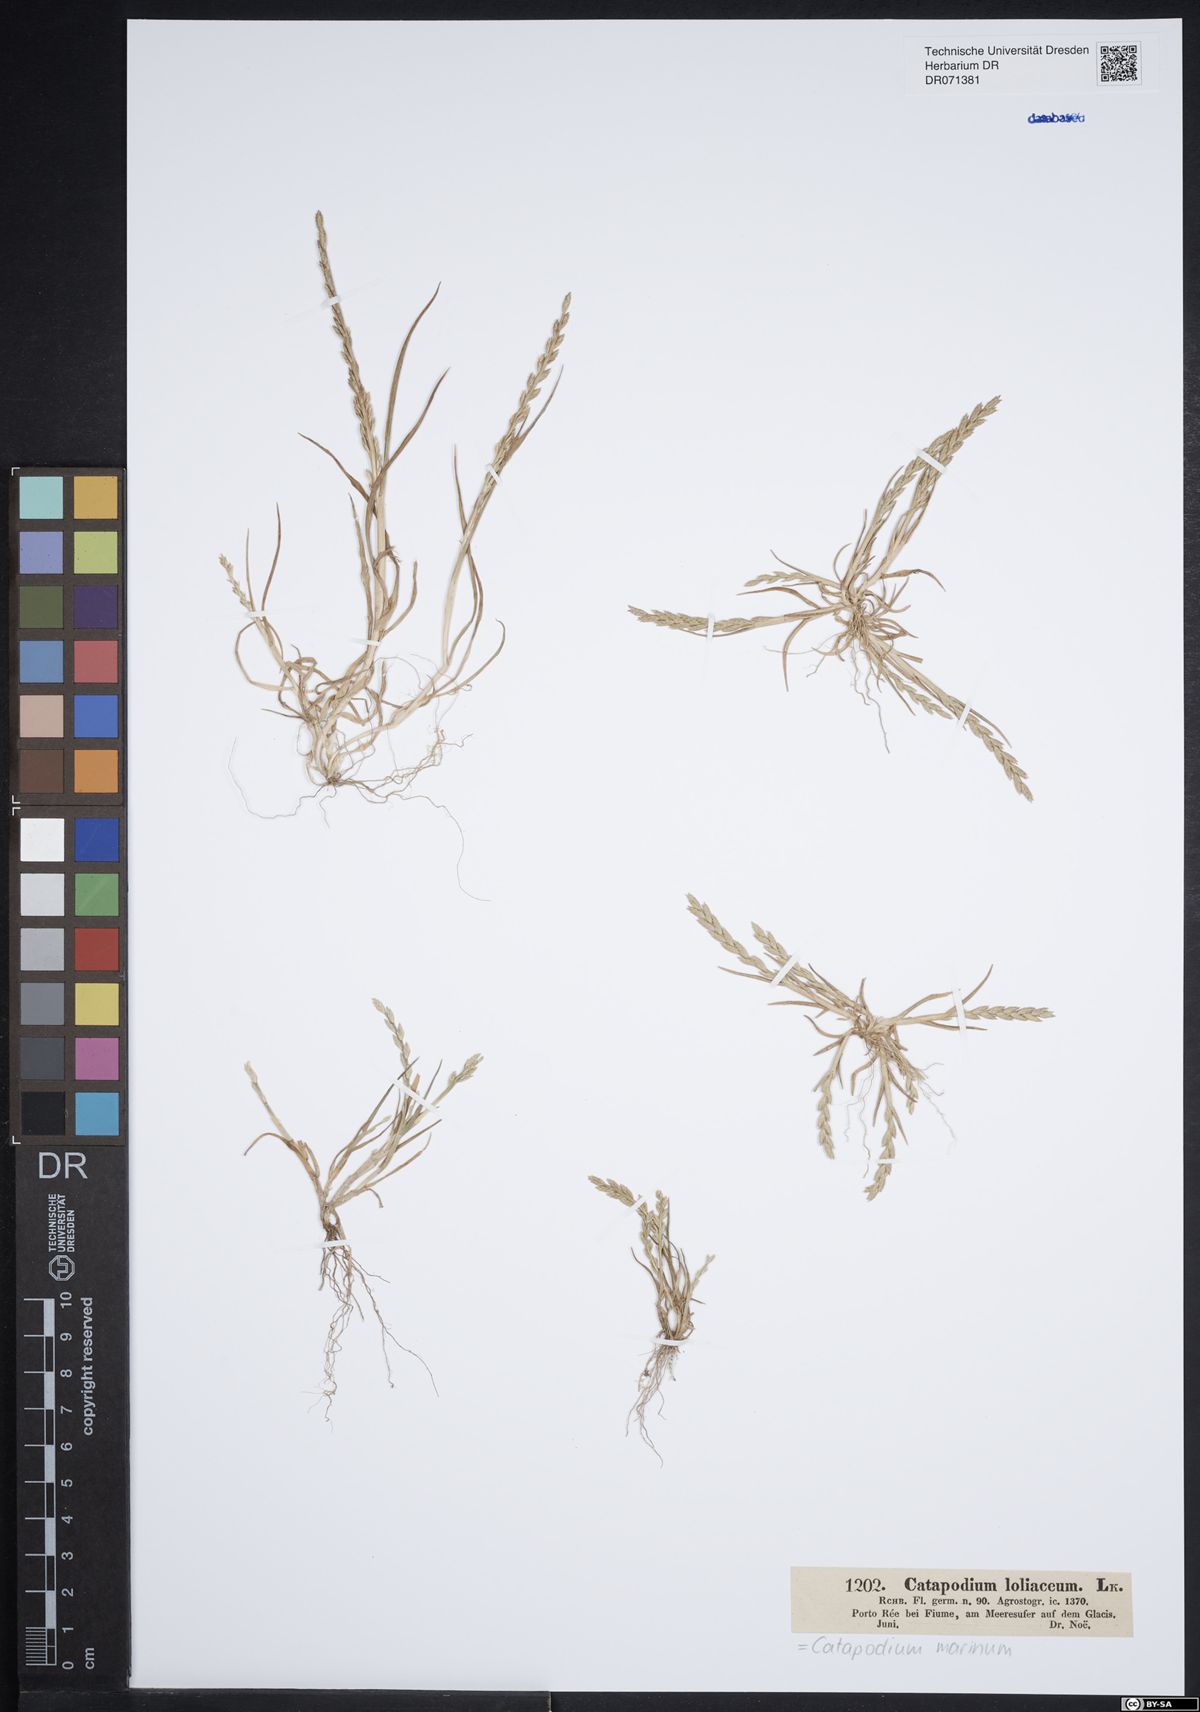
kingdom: Plantae
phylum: Tracheophyta
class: Liliopsida
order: Poales
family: Poaceae
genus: Catapodium
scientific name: Catapodium marinum
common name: Sea fern-grass
